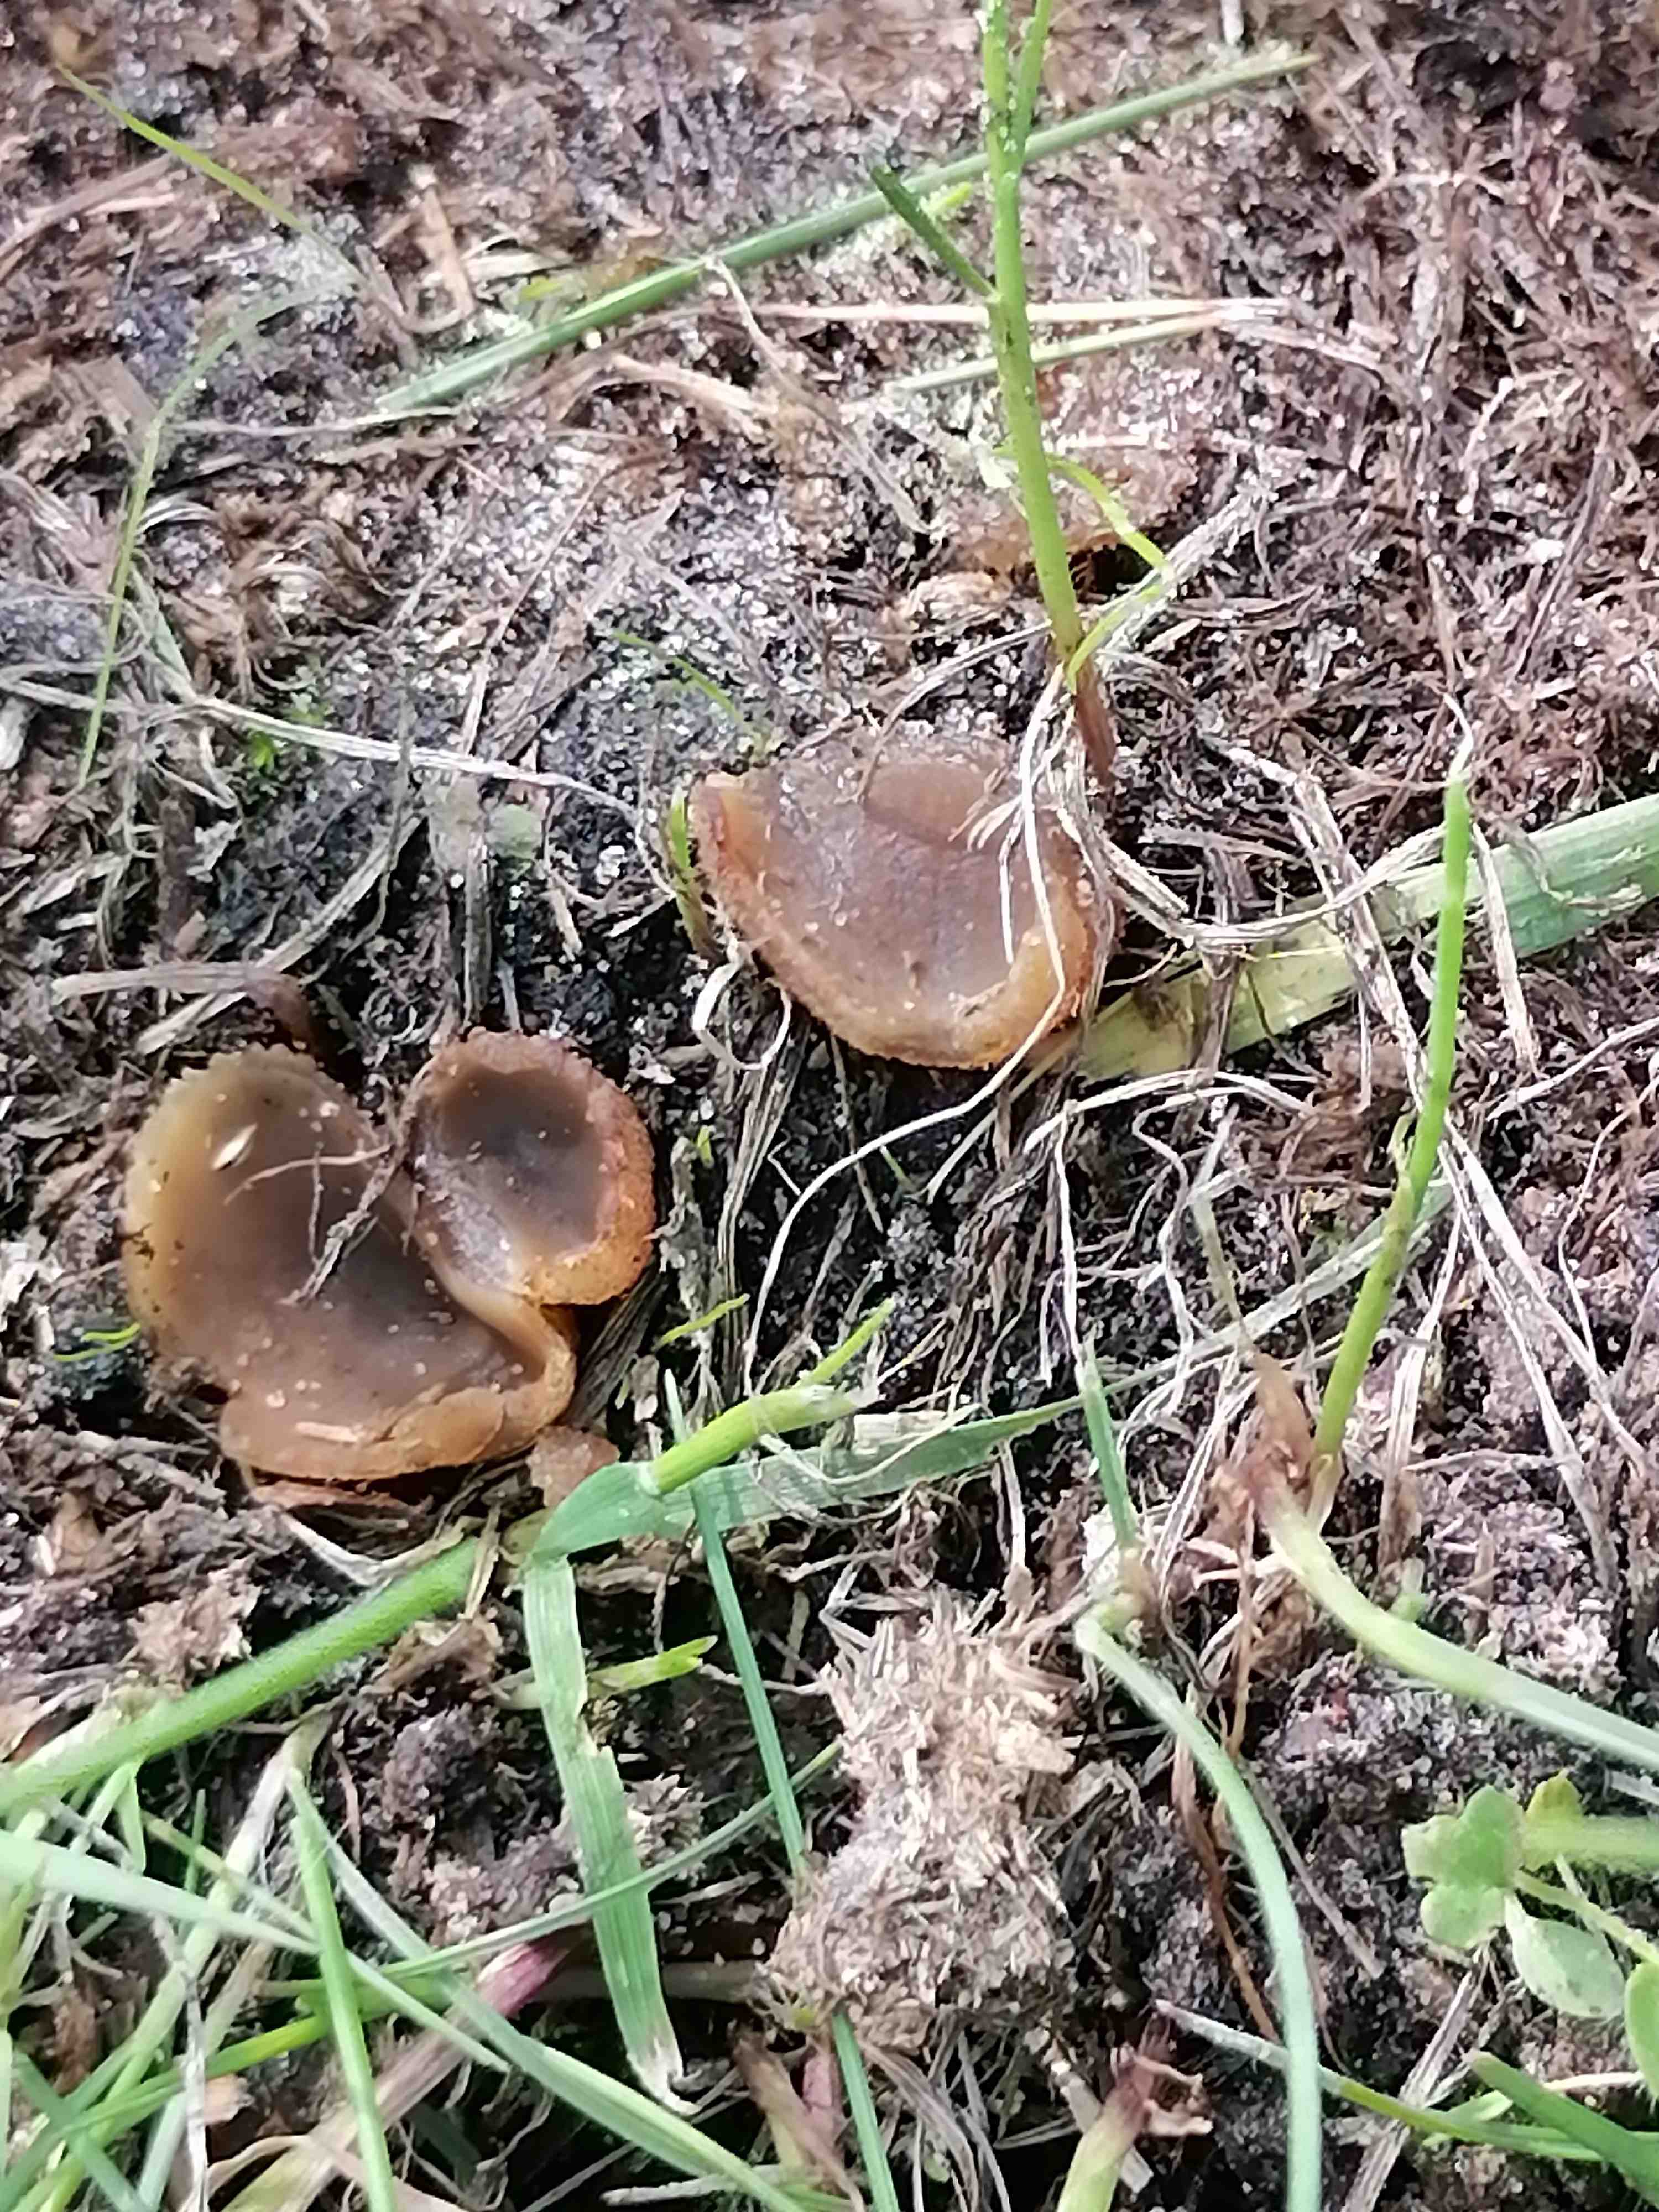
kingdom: Fungi
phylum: Ascomycota
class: Pezizomycetes
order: Pezizales
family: Pezizaceae
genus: Peziza
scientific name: Peziza fimeti
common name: møg-bægersvamp
